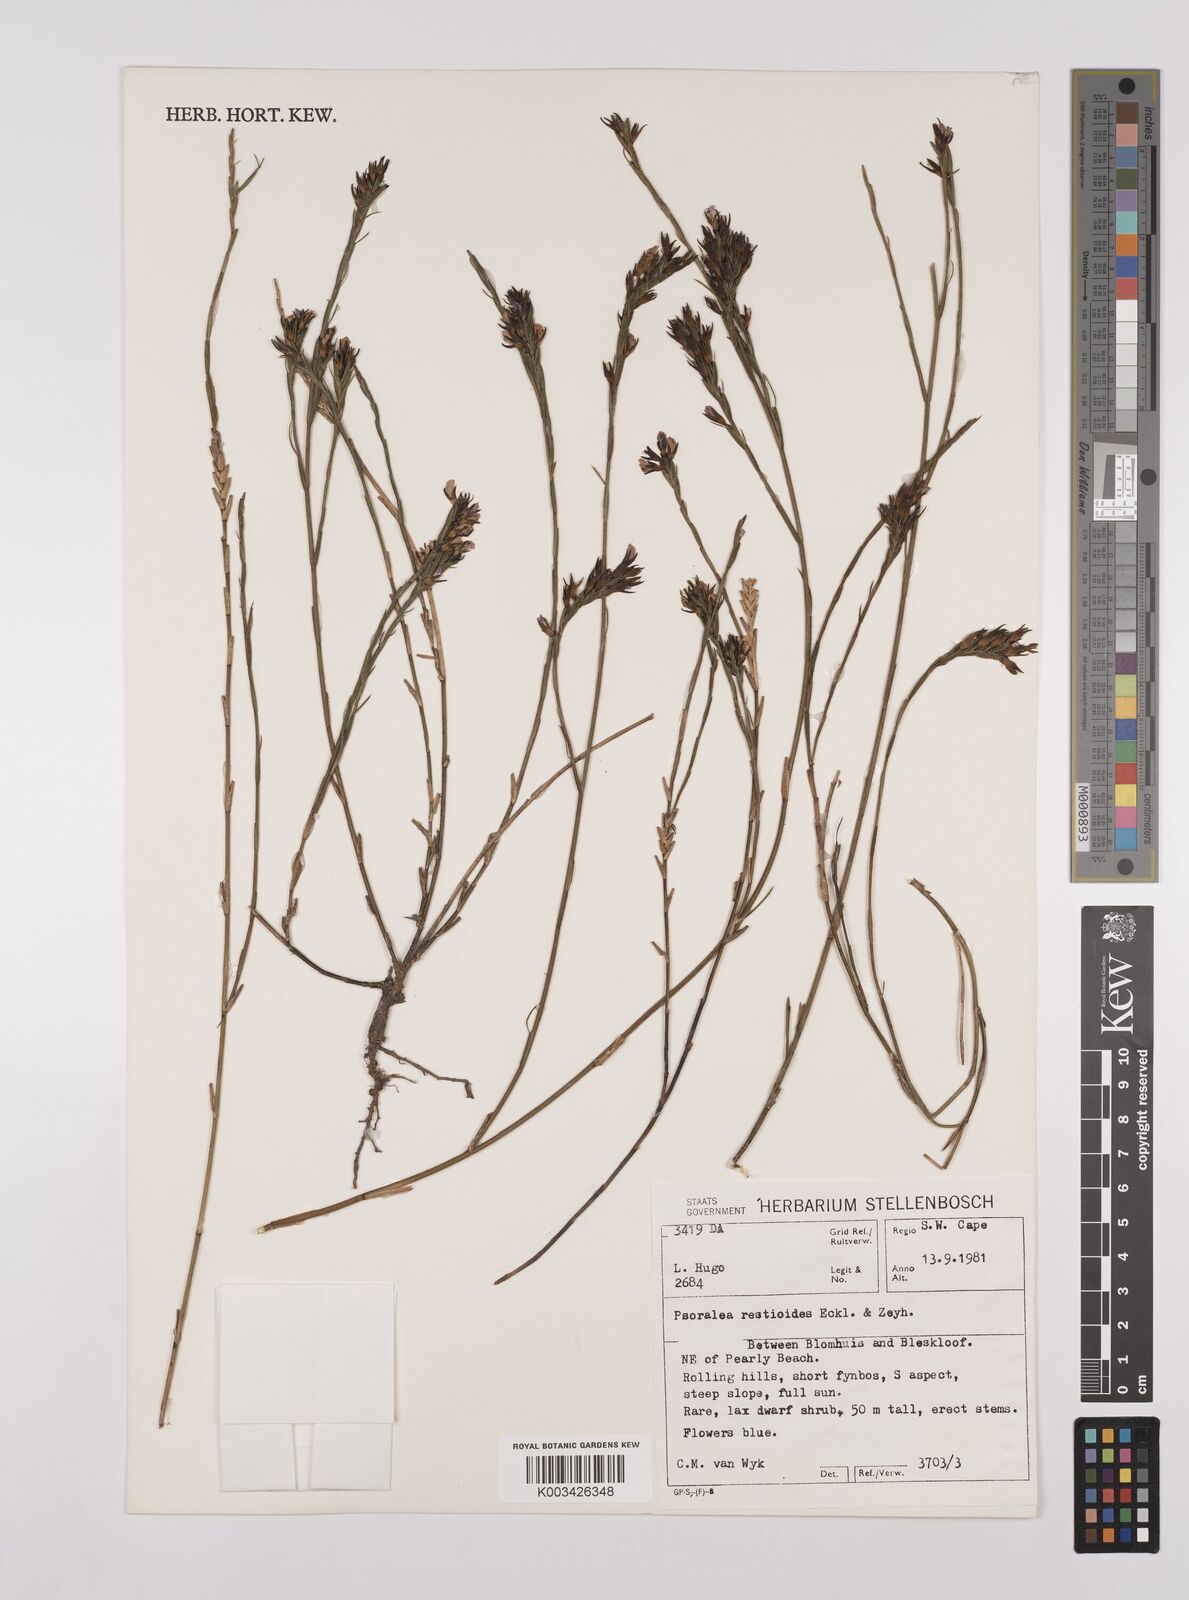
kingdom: Plantae
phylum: Tracheophyta
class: Magnoliopsida
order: Fabales
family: Fabaceae
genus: Psoralea
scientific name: Psoralea restioides
